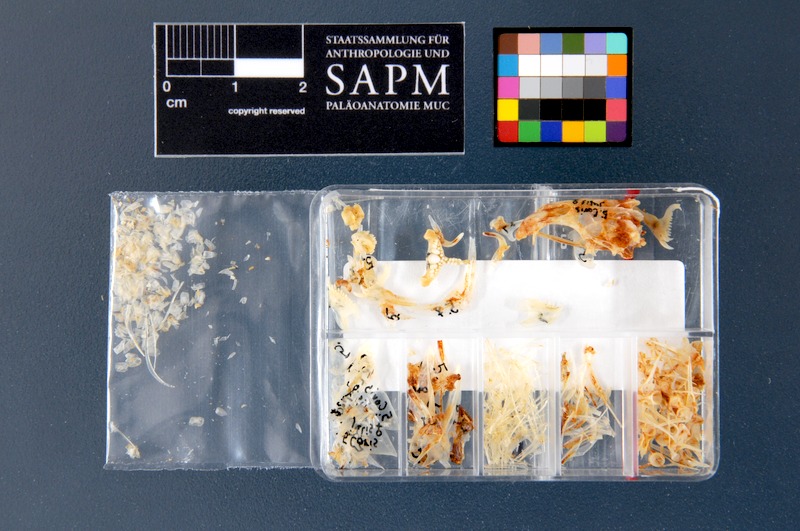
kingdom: Animalia
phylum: Chordata
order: Perciformes
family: Labridae
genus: Coris
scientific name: Coris julis
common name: Rainbow wrasse
